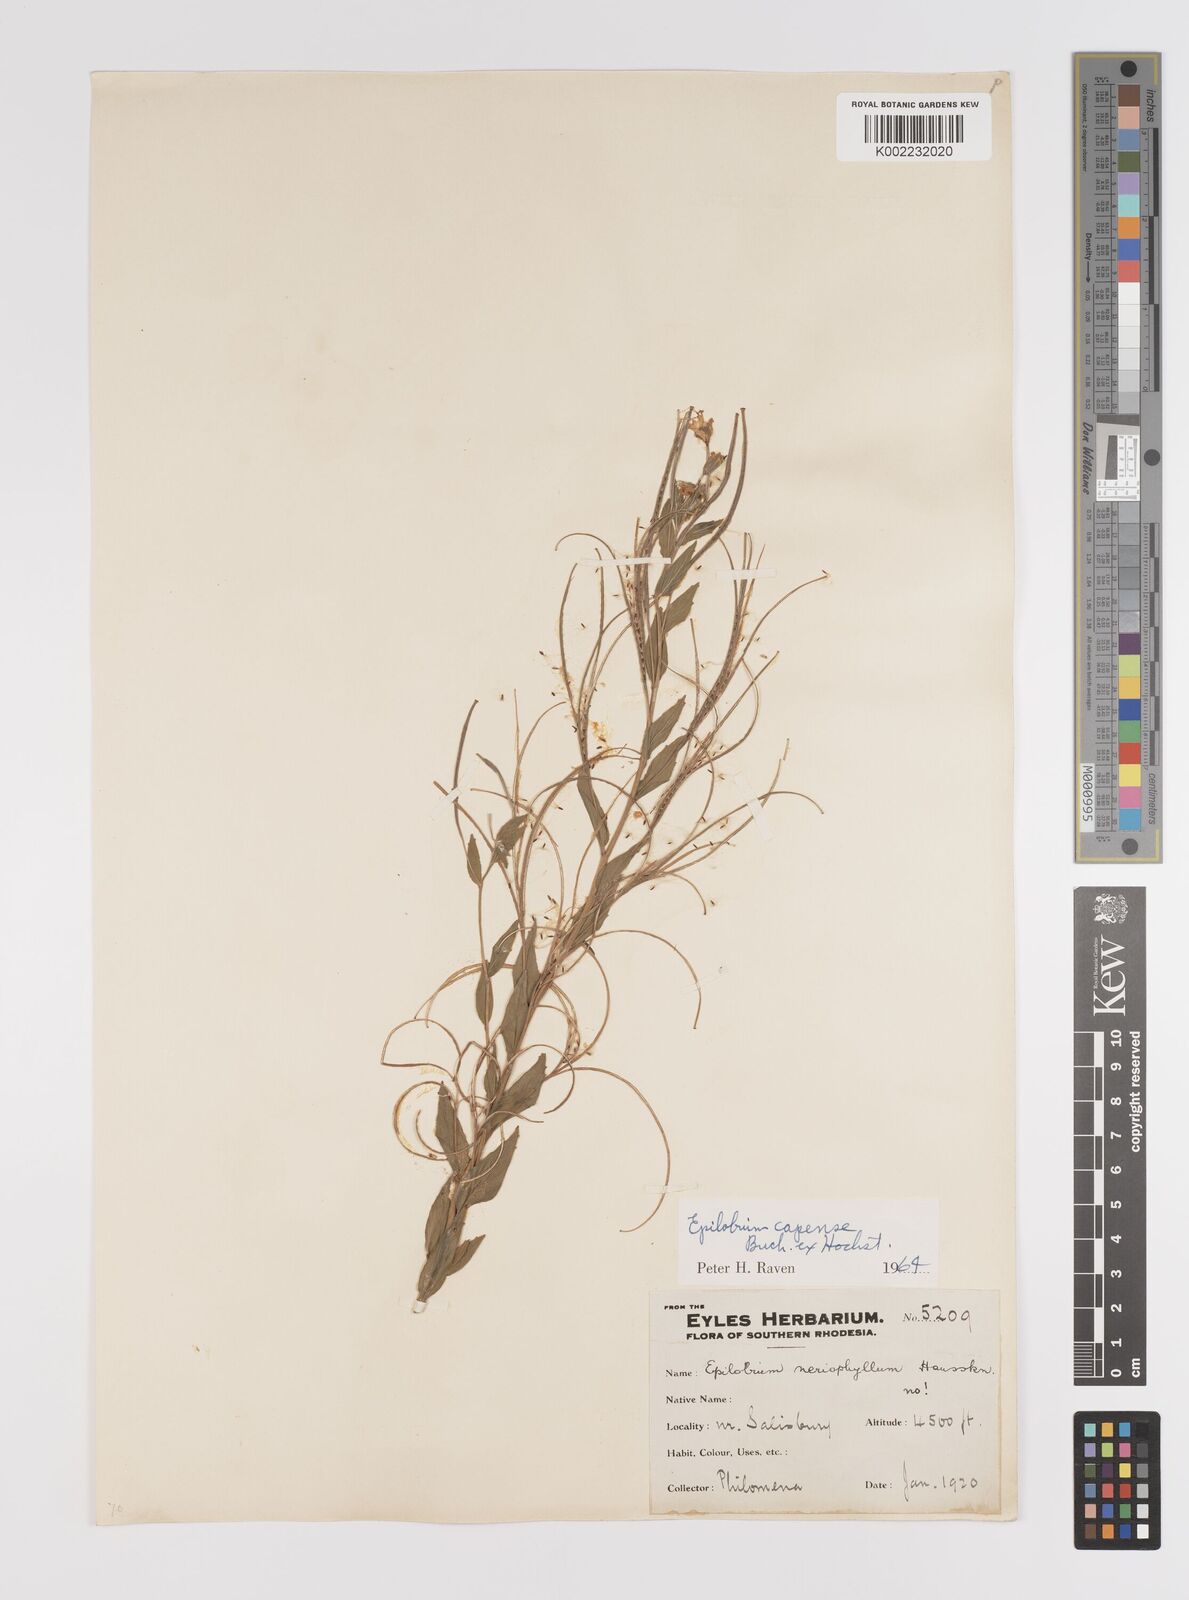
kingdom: Plantae
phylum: Tracheophyta
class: Magnoliopsida
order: Myrtales
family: Onagraceae
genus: Epilobium
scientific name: Epilobium capense
